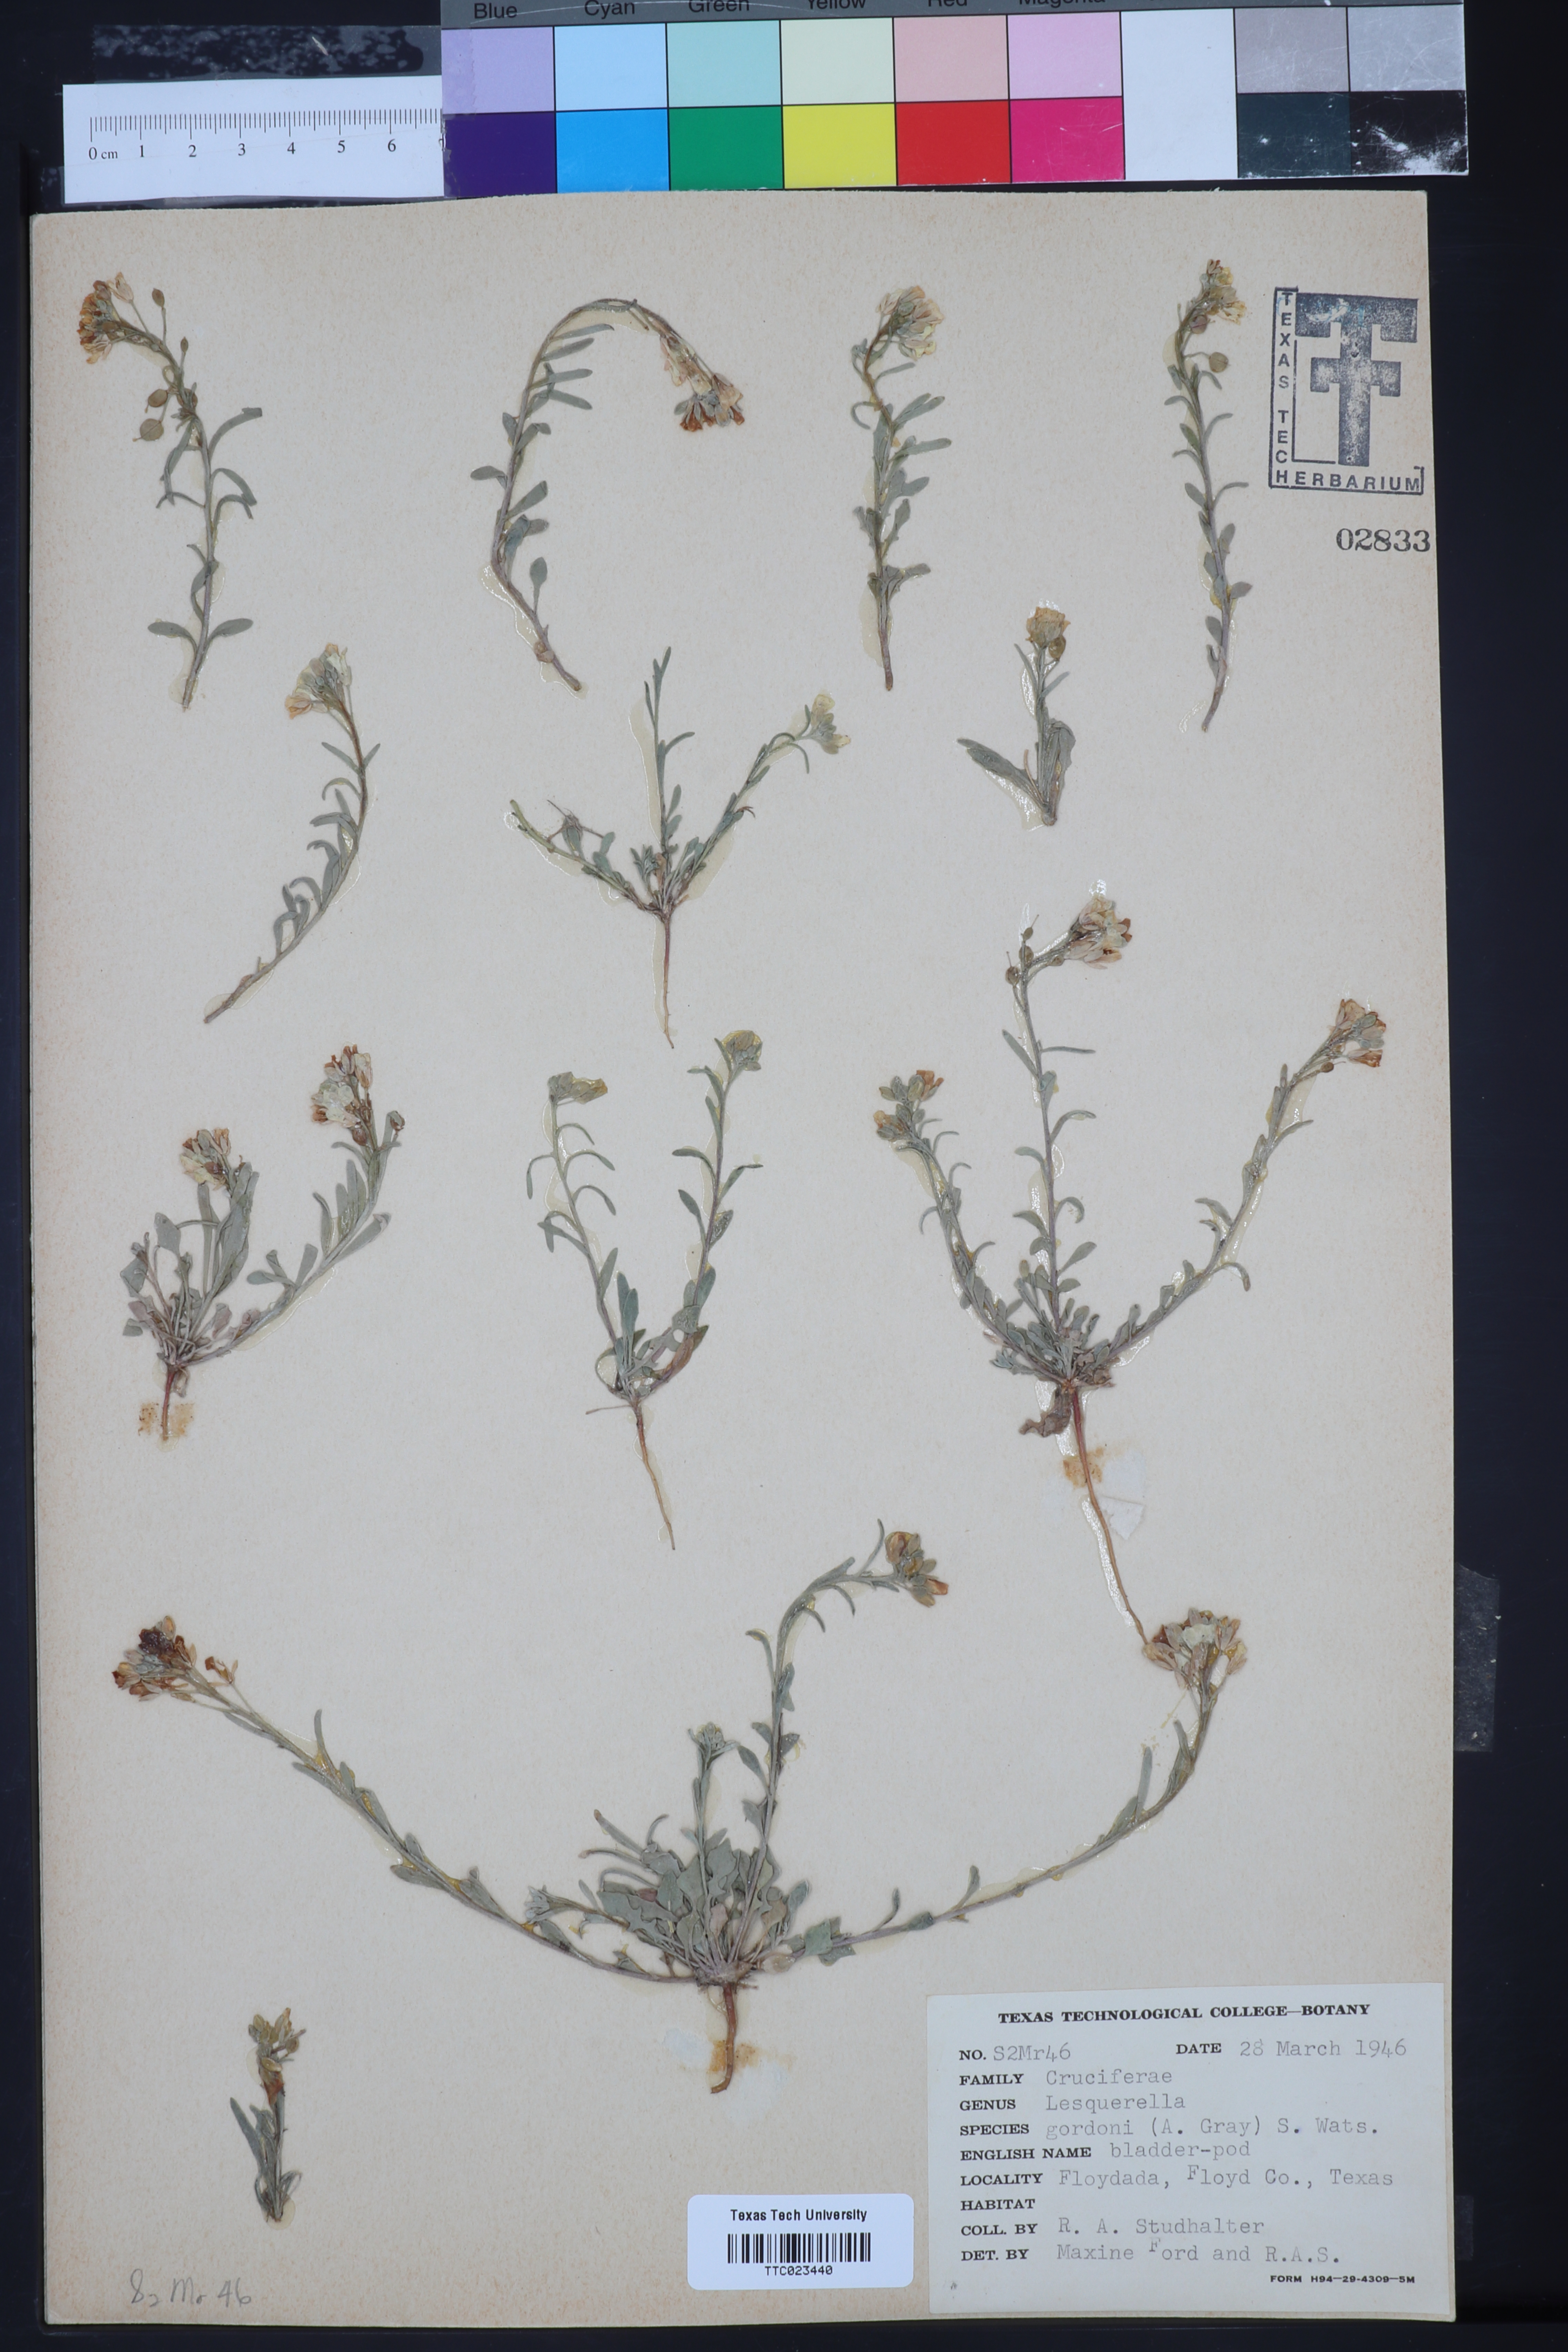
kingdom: Plantae
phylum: Tracheophyta
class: Magnoliopsida
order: Brassicales
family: Brassicaceae
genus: Physaria
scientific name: Physaria gordonii
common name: Gordon's bladderpod
